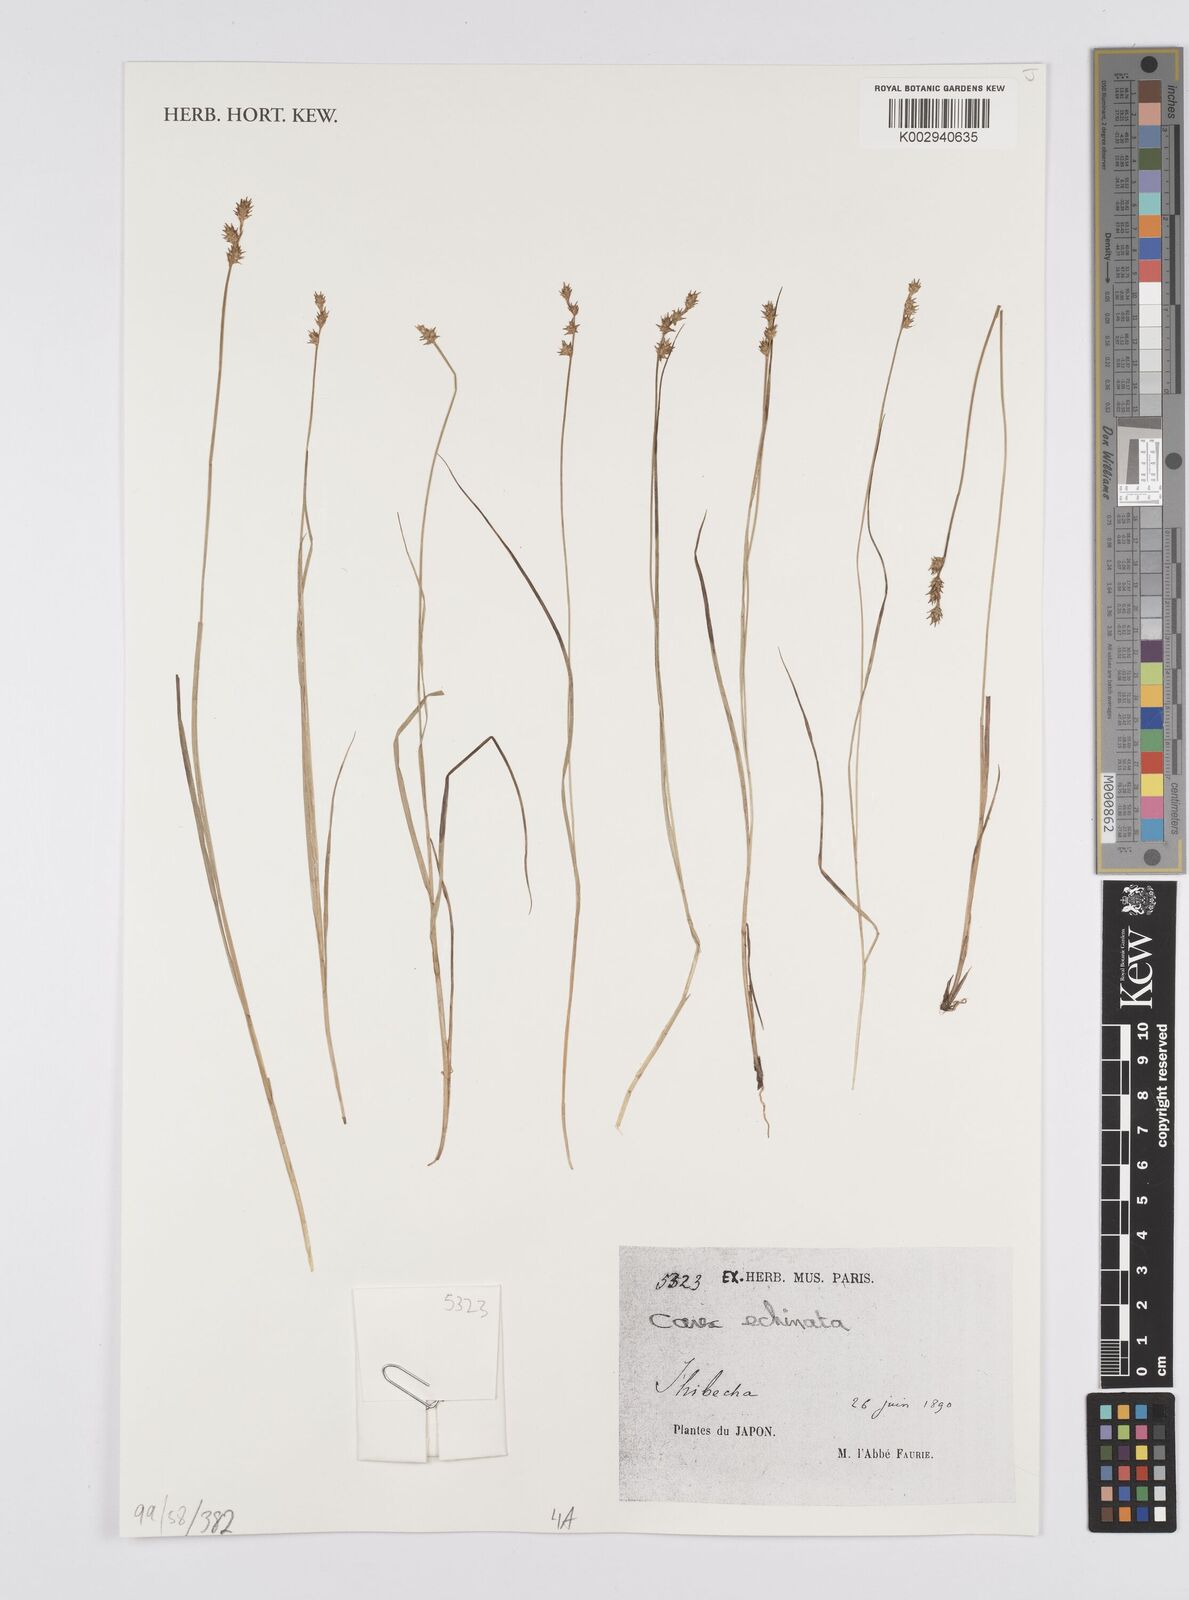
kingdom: Plantae
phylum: Tracheophyta
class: Liliopsida
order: Poales
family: Cyperaceae
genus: Carex
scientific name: Carex echinata
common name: Star sedge
